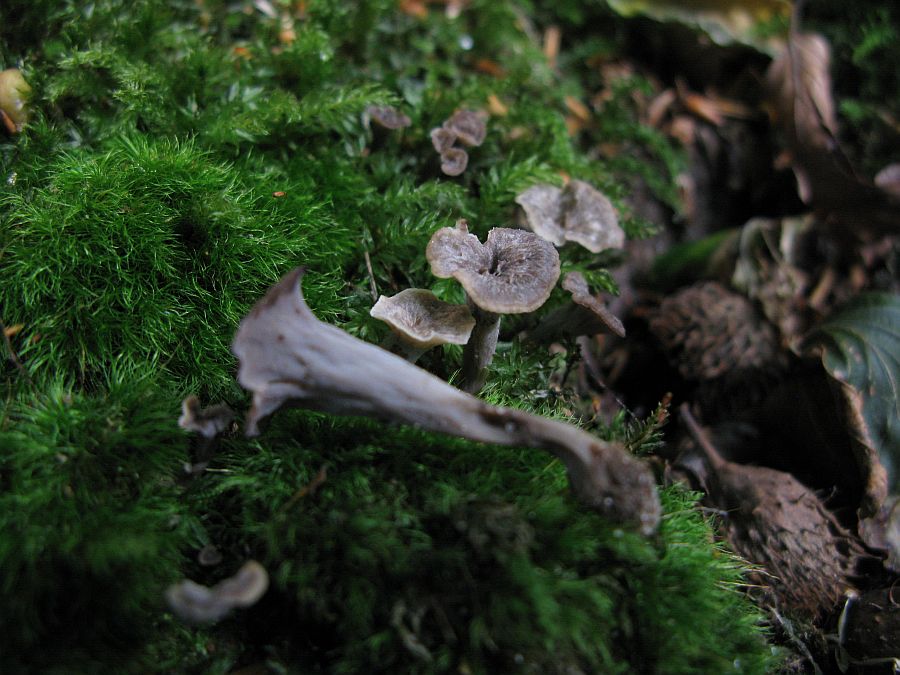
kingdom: Fungi
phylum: Basidiomycota
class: Agaricomycetes
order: Cantharellales
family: Hydnaceae
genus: Craterellus
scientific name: Craterellus undulatus
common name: liden kantarel
